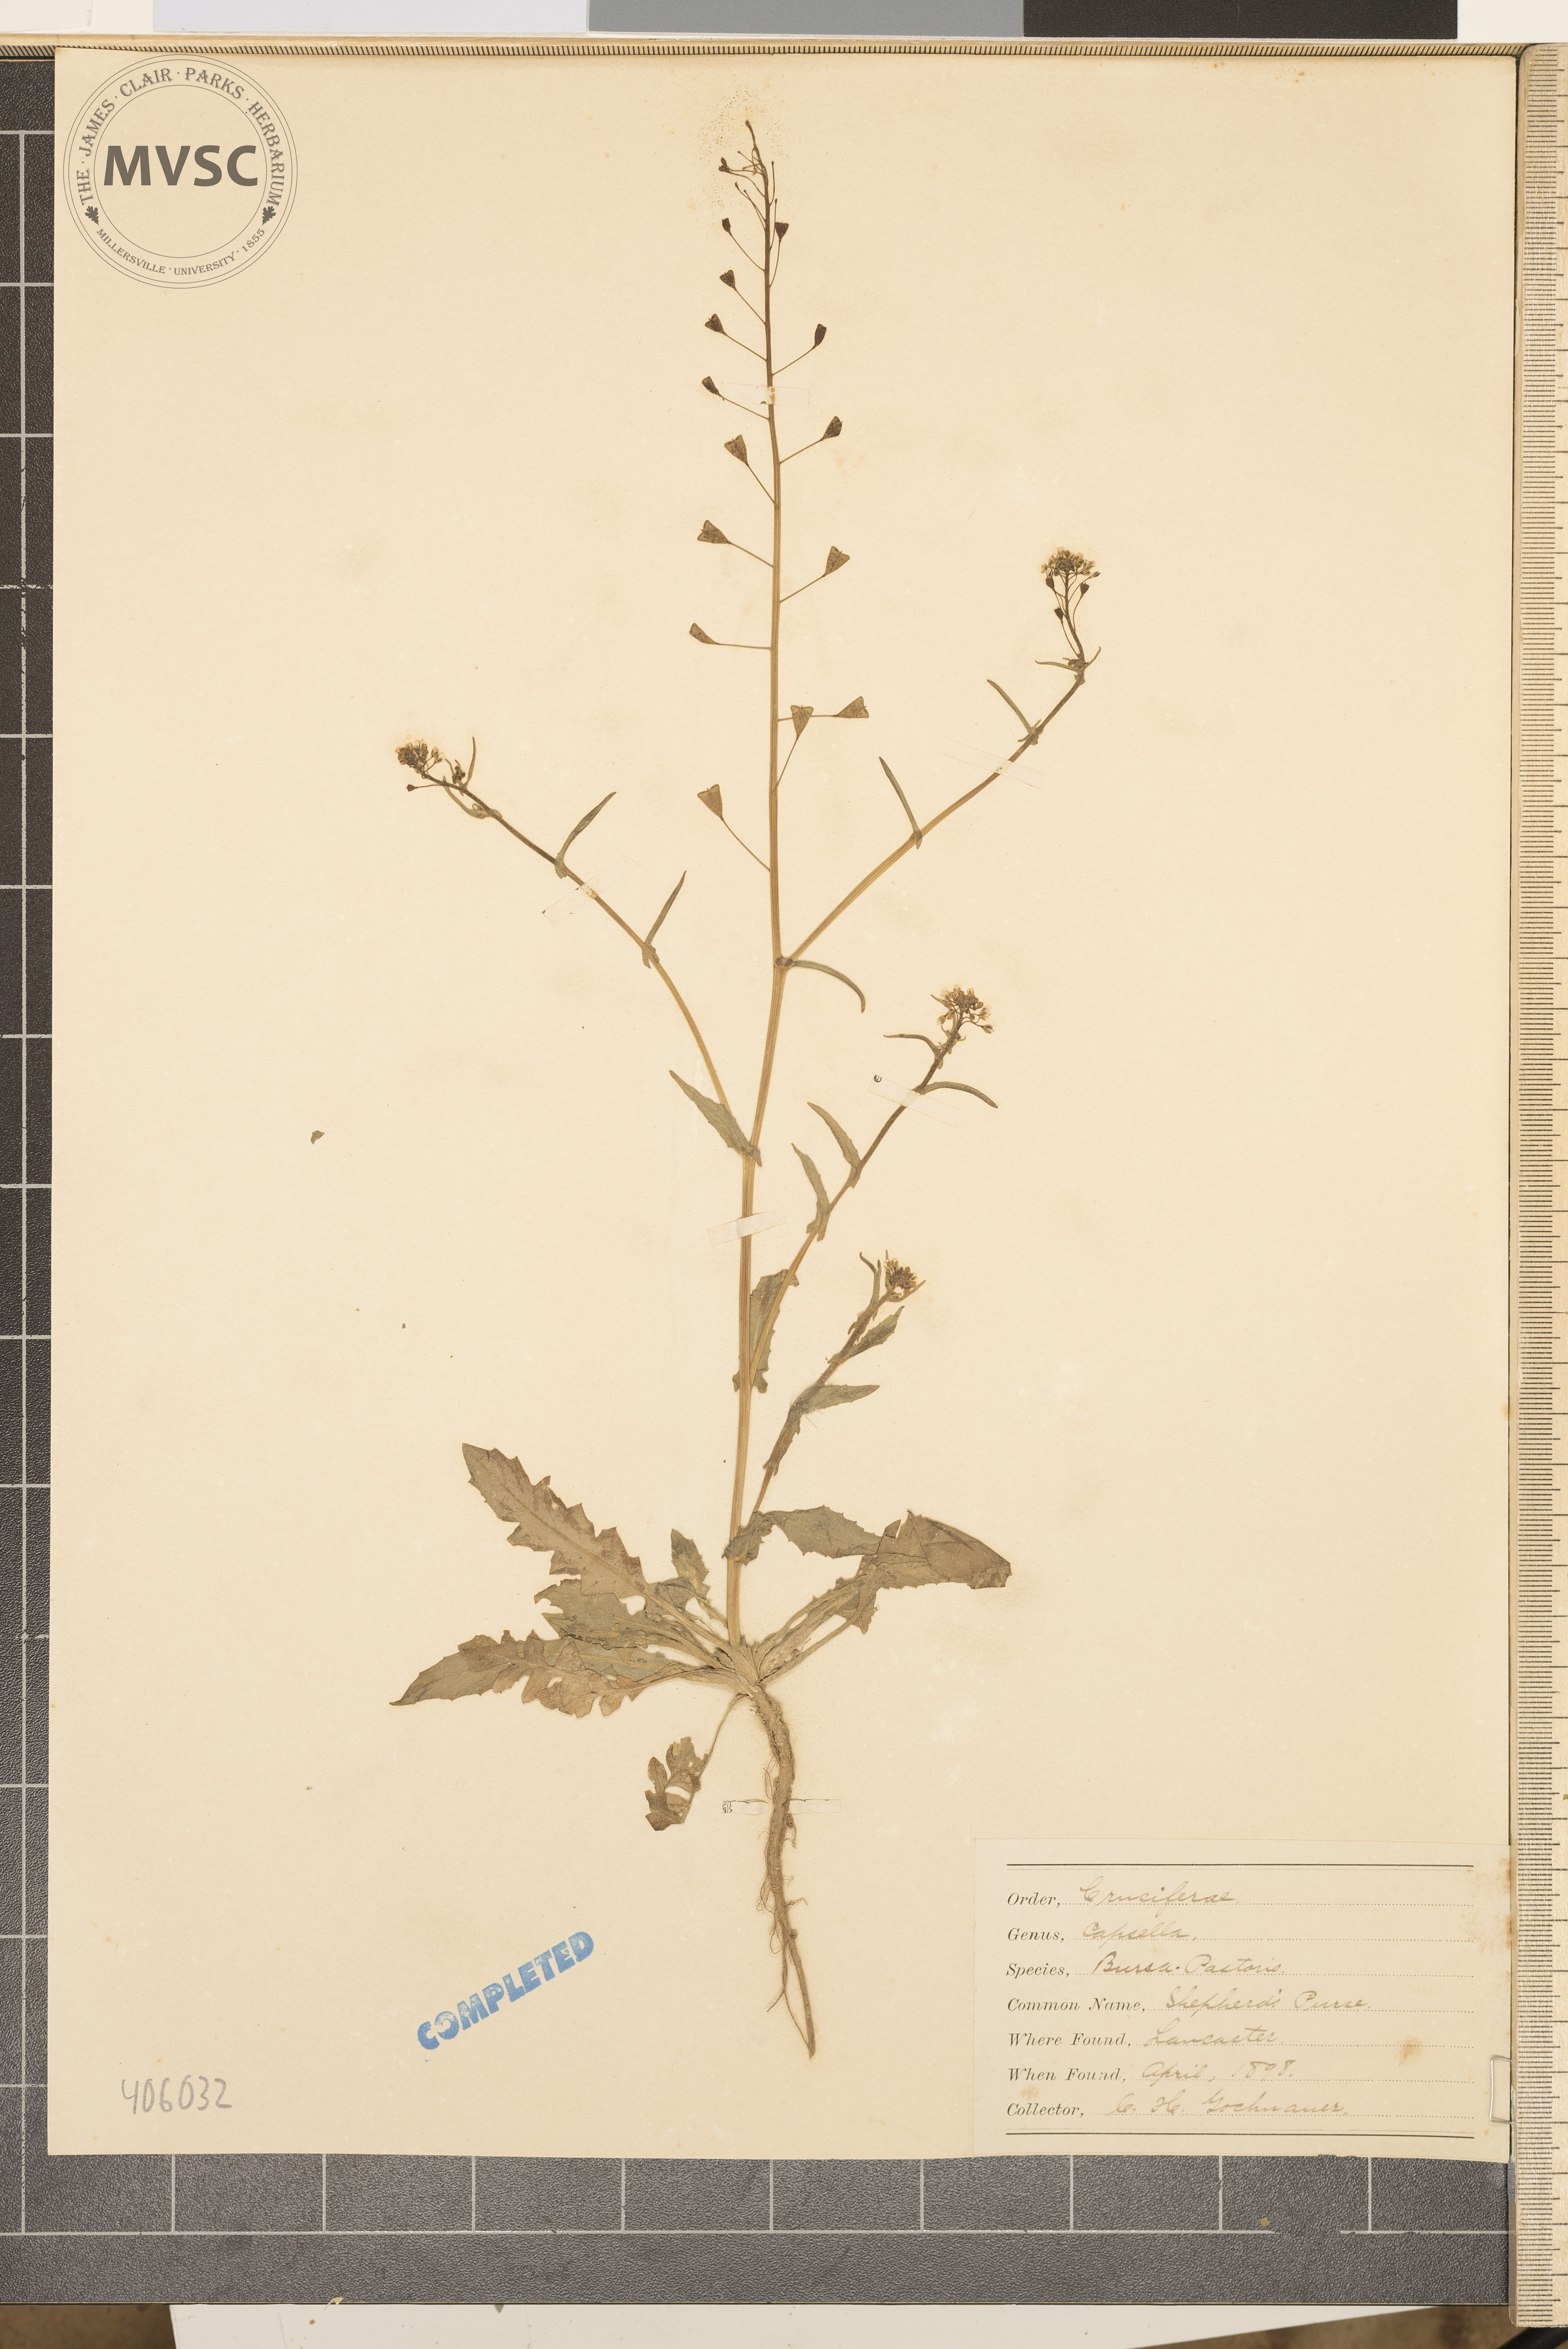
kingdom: Plantae
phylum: Tracheophyta
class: Magnoliopsida
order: Brassicales
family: Brassicaceae
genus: Capsella
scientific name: Capsella bursa-pastoris
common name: Shepherd's purse
